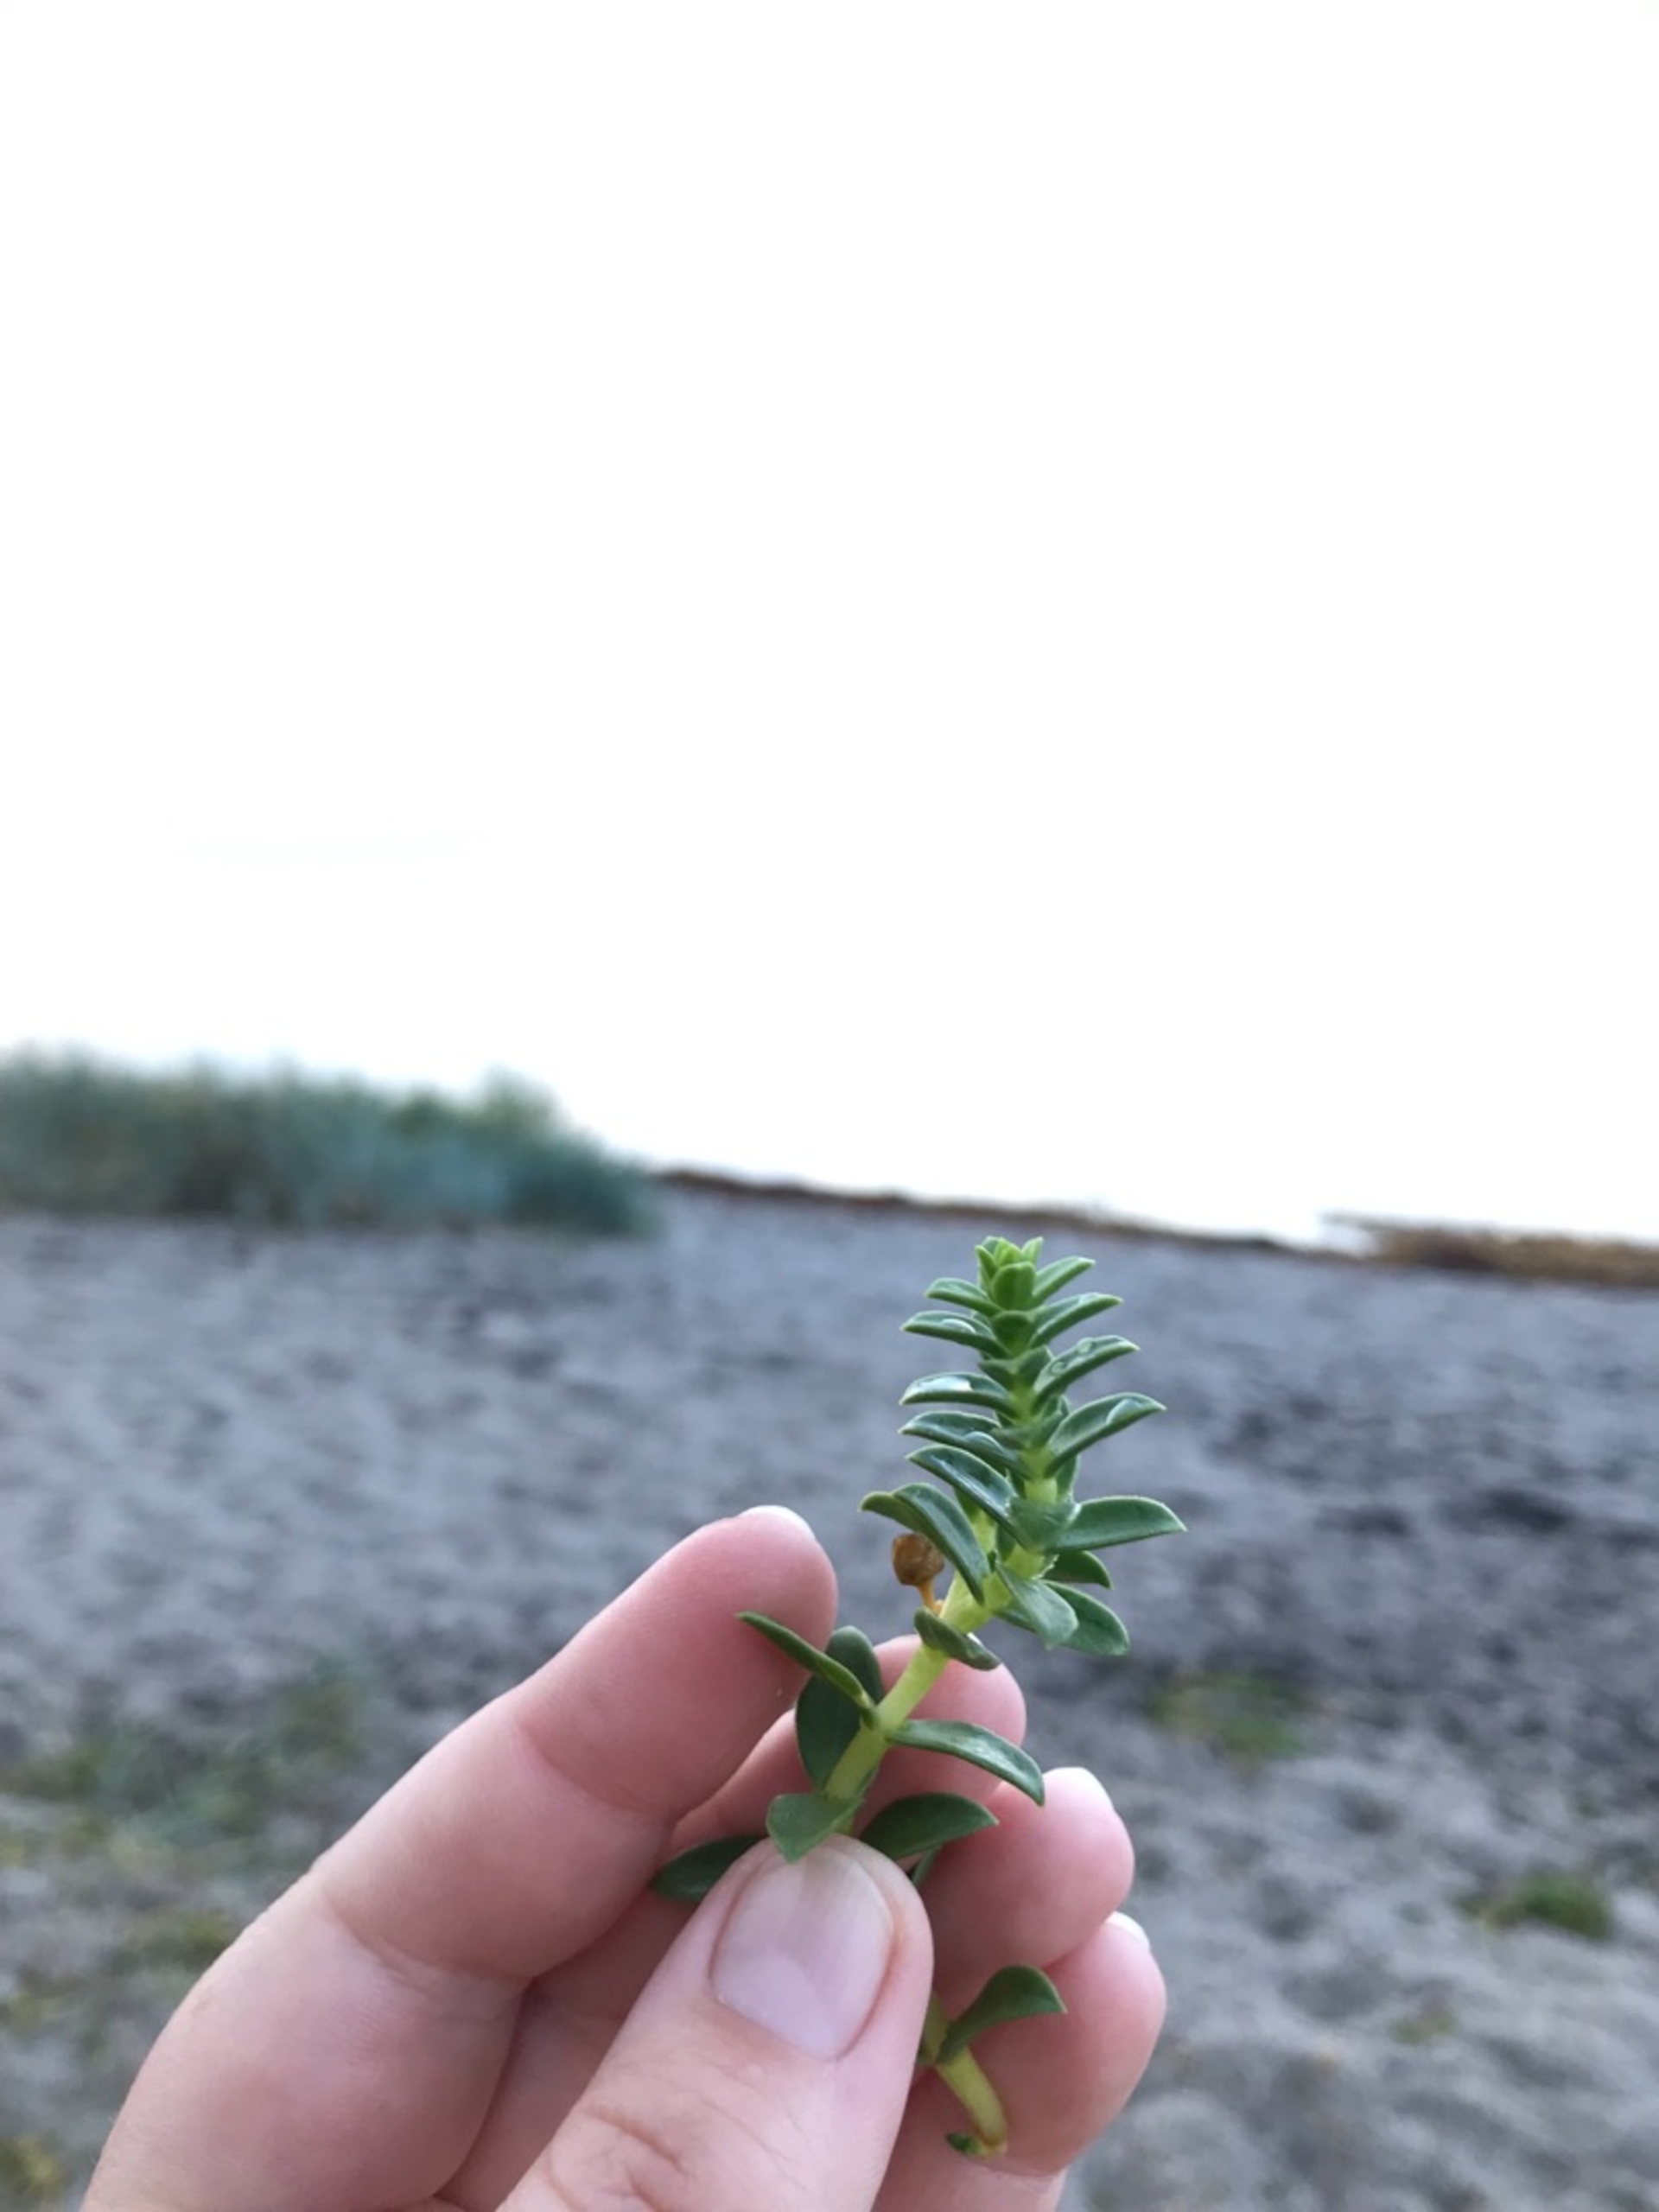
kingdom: Plantae
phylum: Tracheophyta
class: Magnoliopsida
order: Caryophyllales
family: Caryophyllaceae
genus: Honckenya
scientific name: Honckenya peploides
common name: Strandarve
